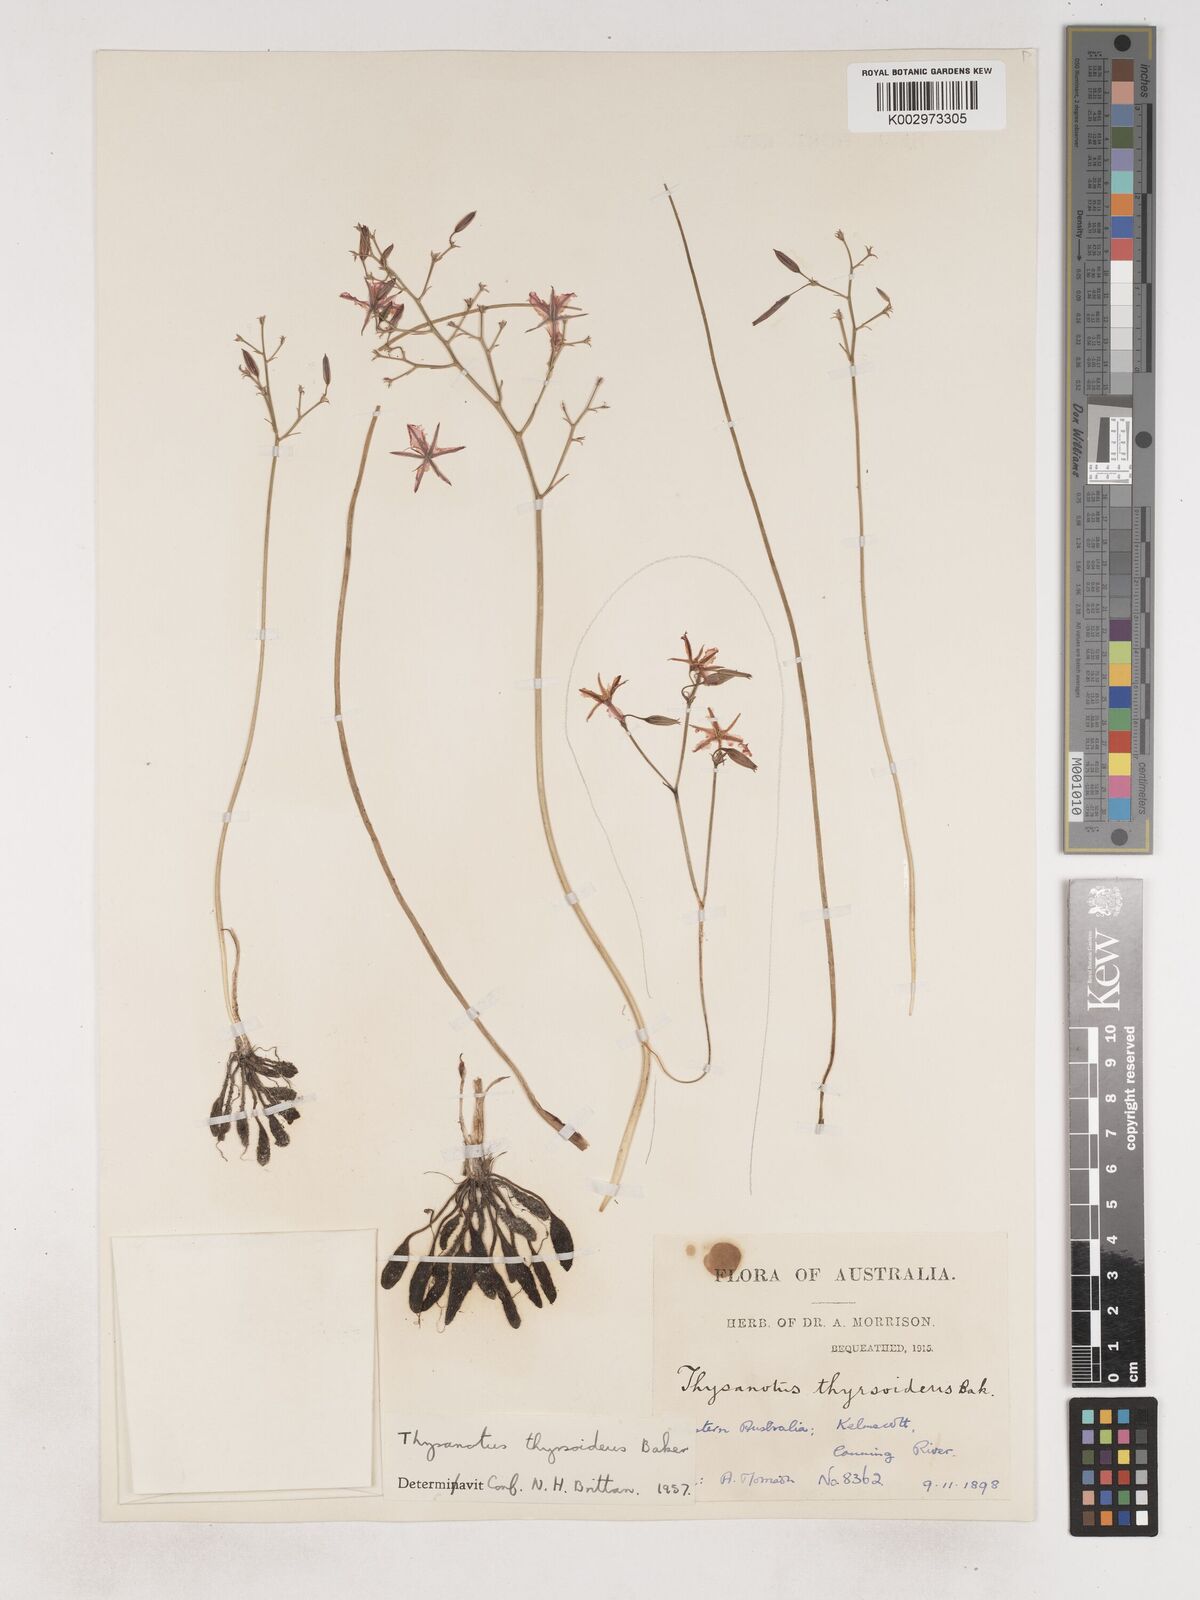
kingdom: Plantae
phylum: Tracheophyta
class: Liliopsida
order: Asparagales
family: Asparagaceae
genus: Thysanotus
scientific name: Thysanotus thyrsoideus
